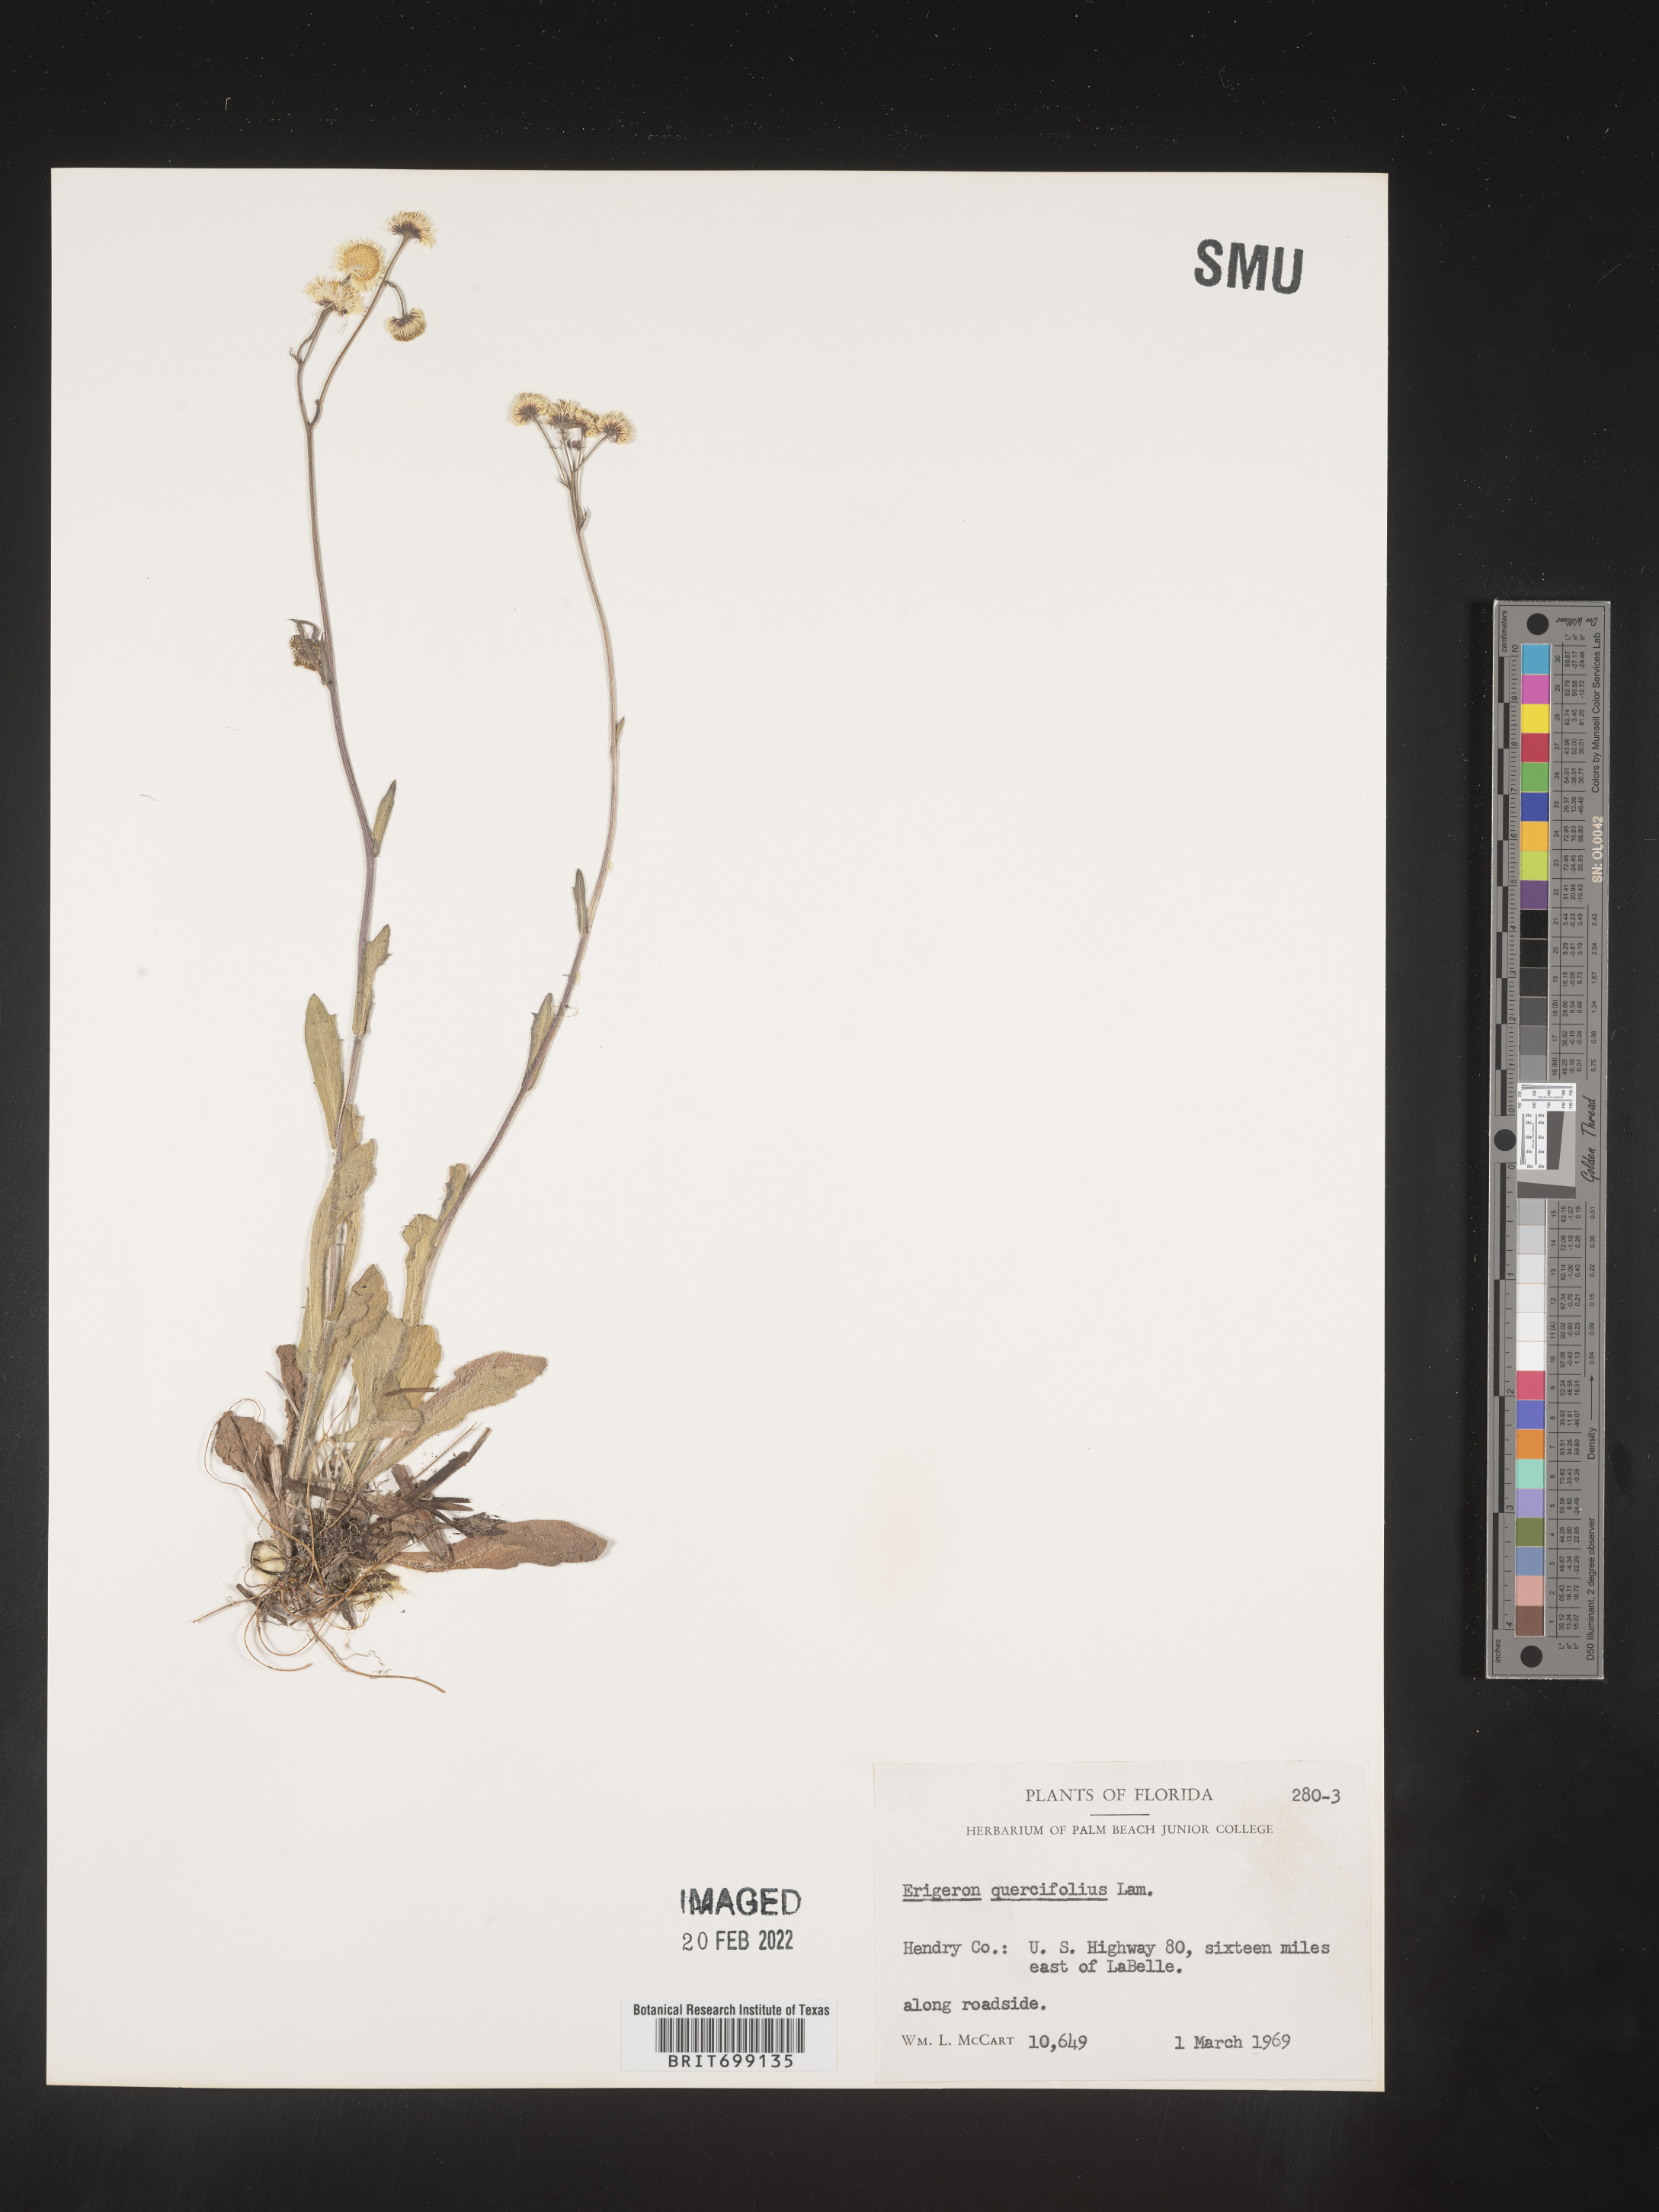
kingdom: Plantae
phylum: Tracheophyta
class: Magnoliopsida
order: Asterales
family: Asteraceae
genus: Erigeron
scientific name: Erigeron quercifolius
